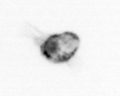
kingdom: Animalia
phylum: Arthropoda
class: Copepoda
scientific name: Copepoda
